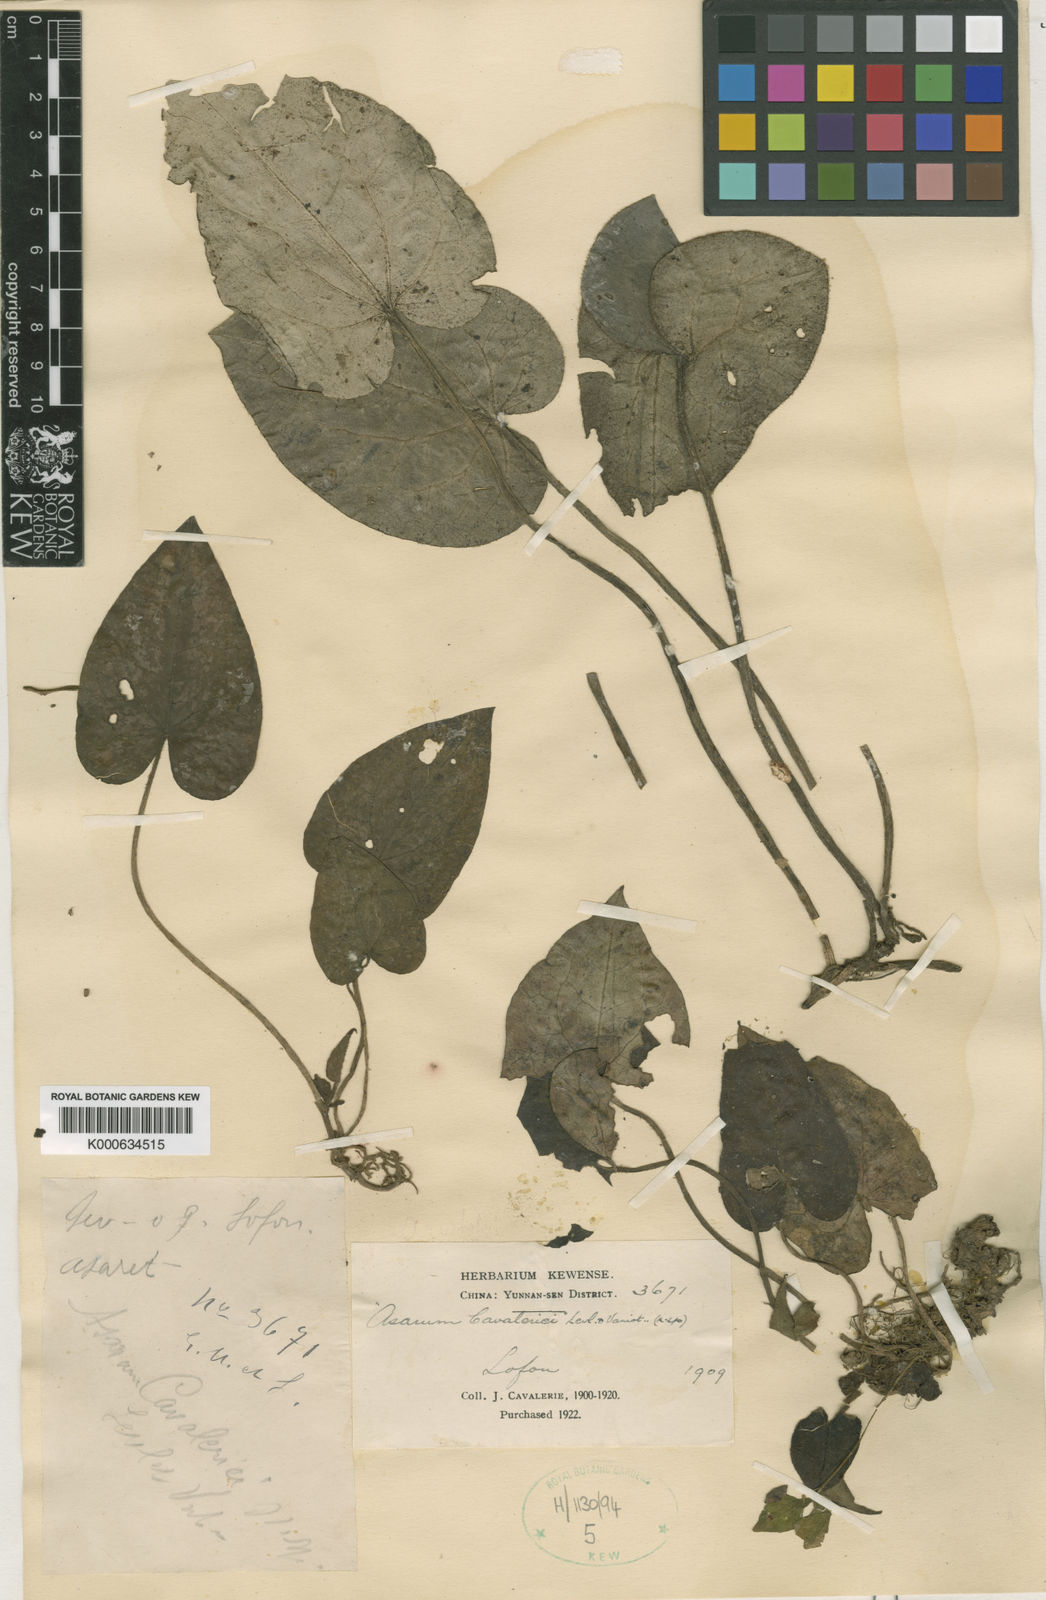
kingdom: Plantae
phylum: Tracheophyta
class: Magnoliopsida
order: Piperales
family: Aristolochiaceae
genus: Asarum
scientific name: Asarum
